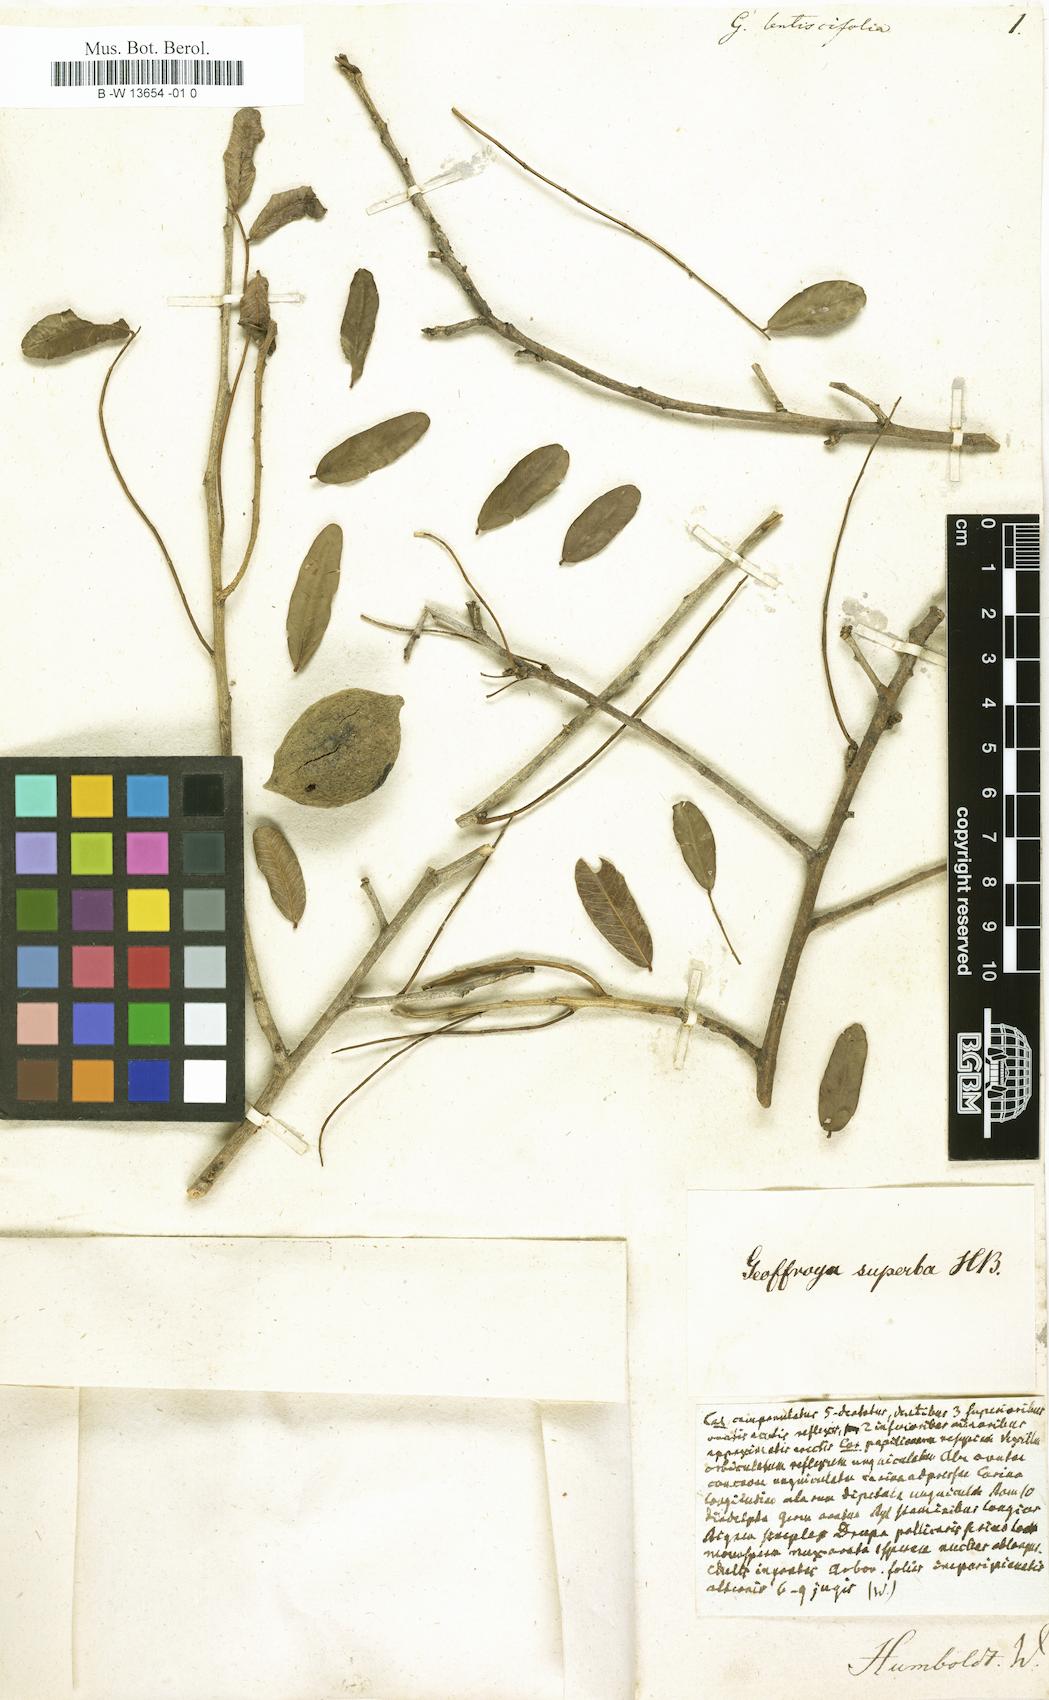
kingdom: Plantae
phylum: Tracheophyta
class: Magnoliopsida
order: Fabales
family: Fabaceae
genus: Geoffroea
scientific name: Geoffroea
